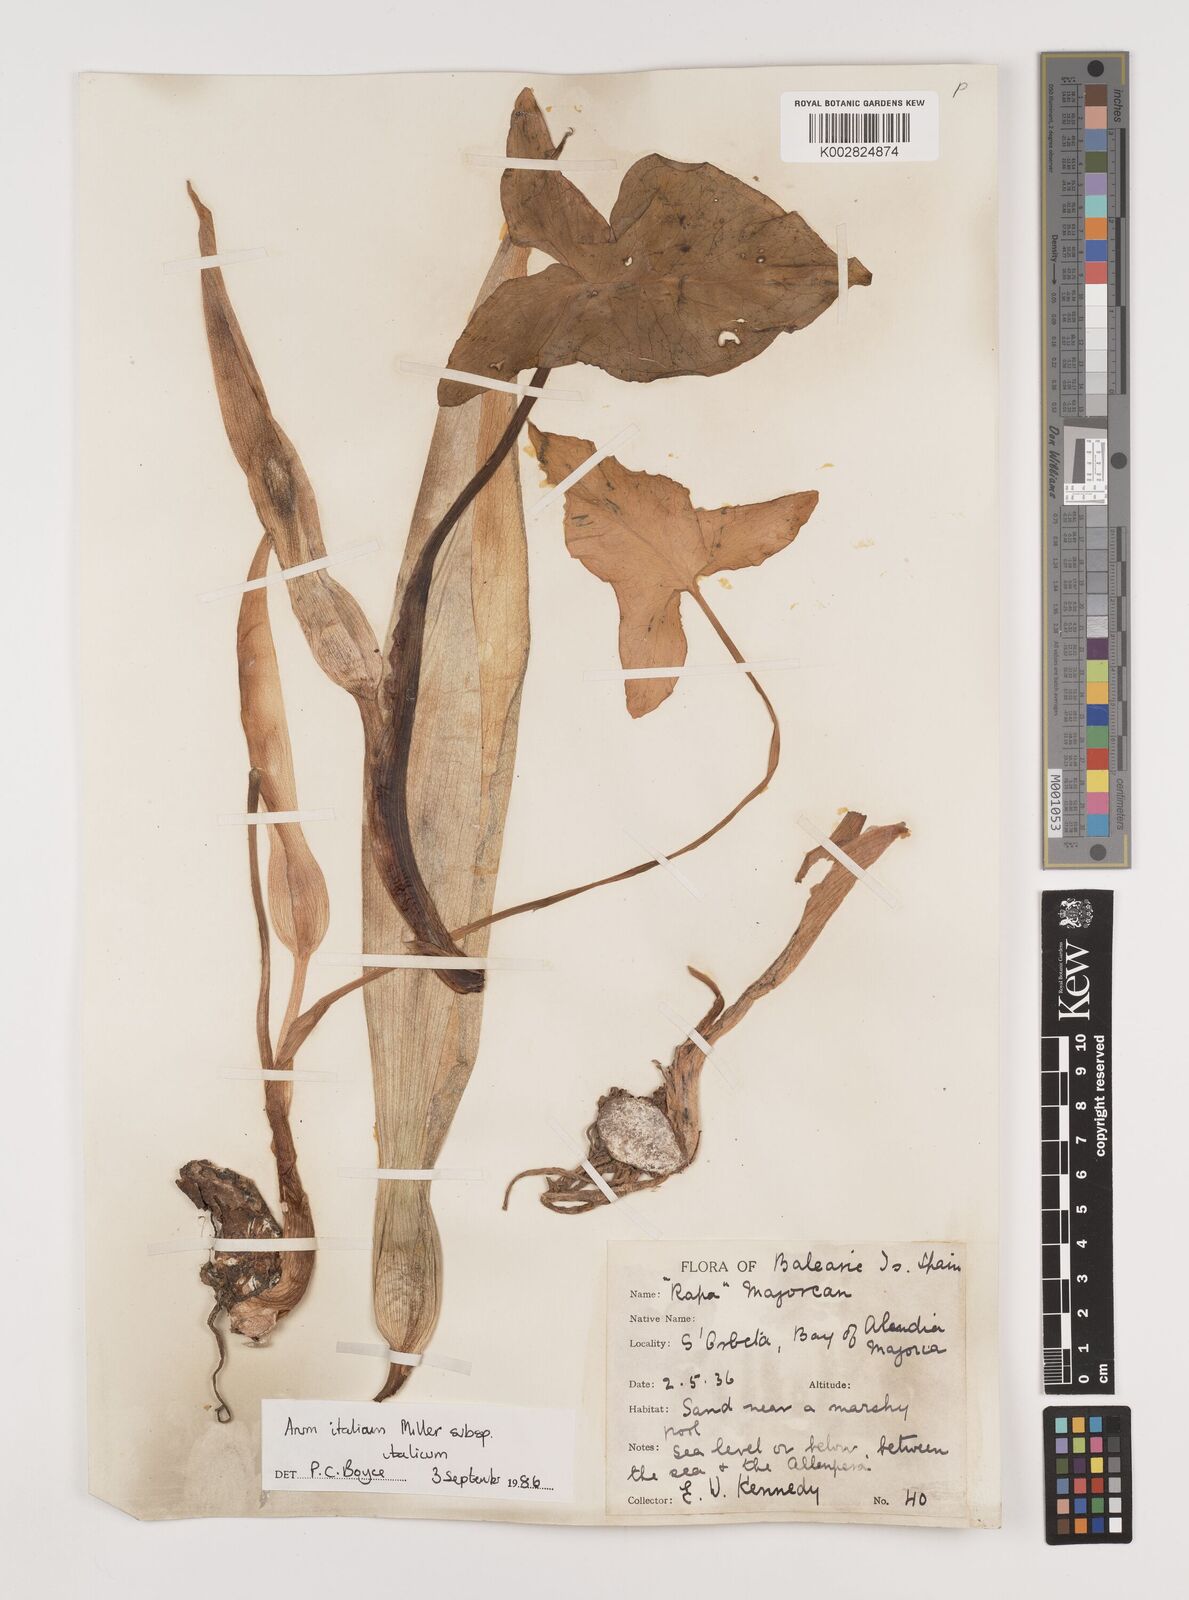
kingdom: Plantae
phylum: Tracheophyta
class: Liliopsida
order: Alismatales
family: Araceae
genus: Arum
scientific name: Arum italicum
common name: Italian lords-and-ladies
